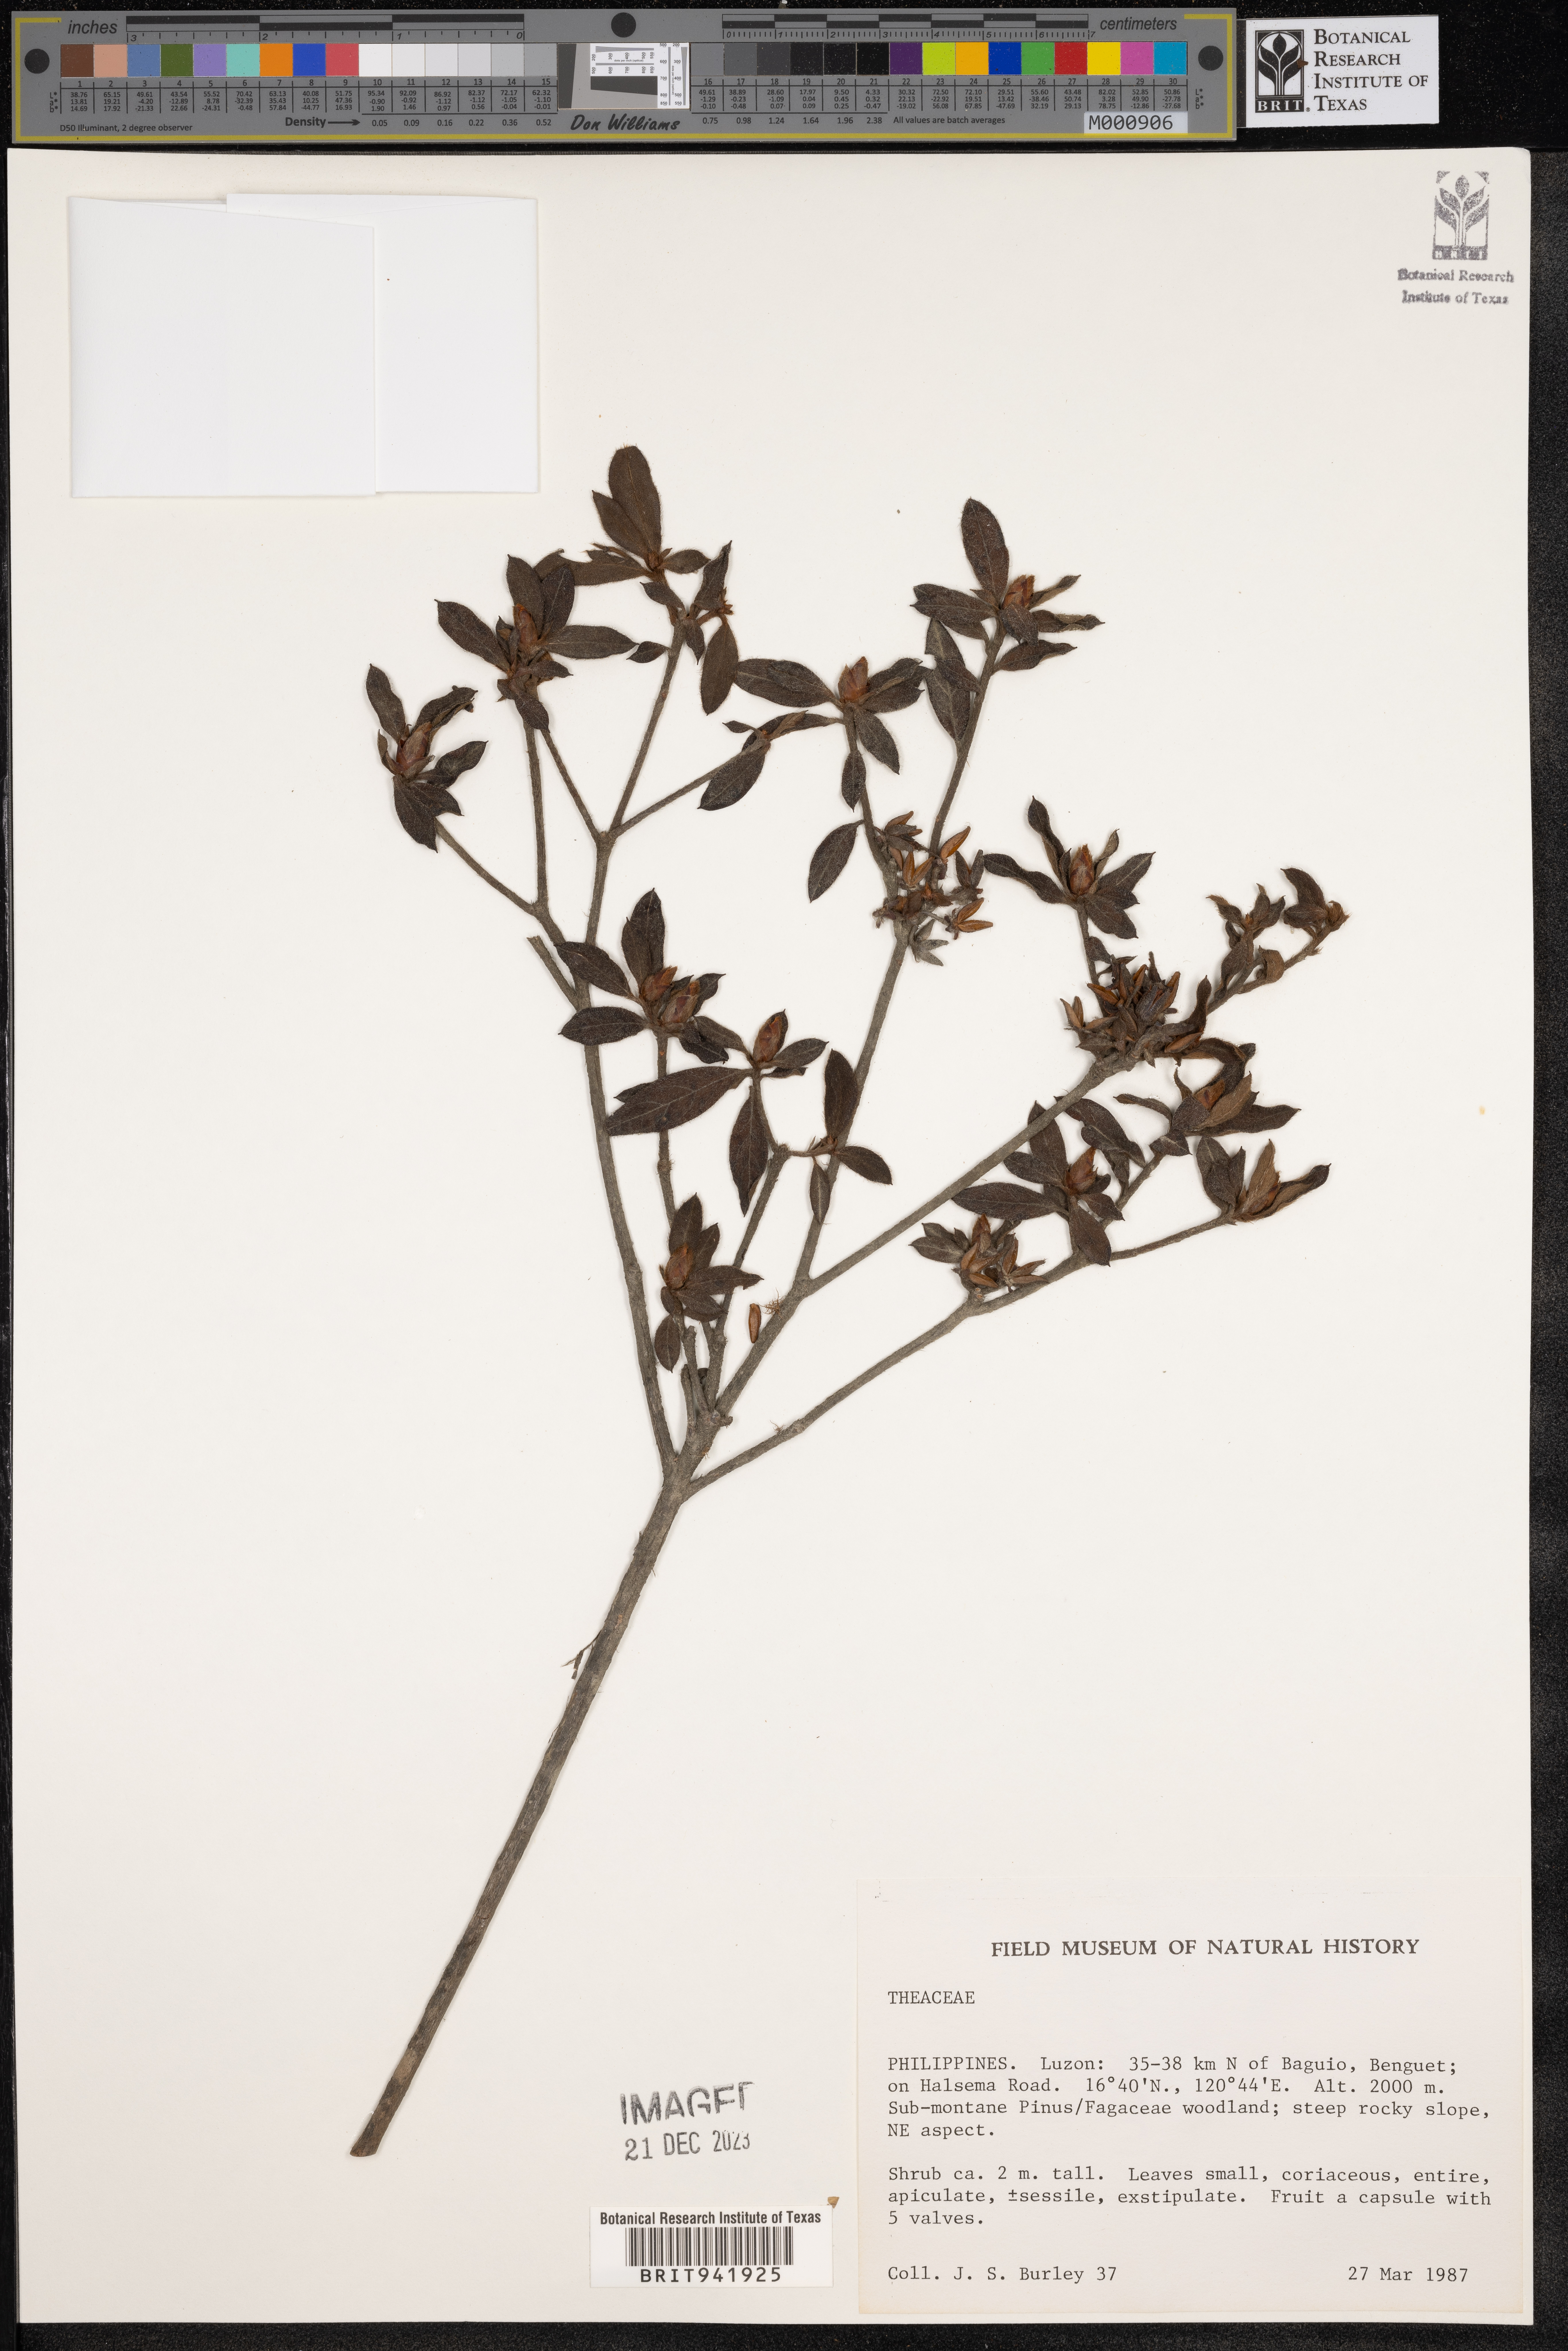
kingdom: Plantae
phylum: Tracheophyta
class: Magnoliopsida
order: Ericales
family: Theaceae
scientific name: Theaceae
